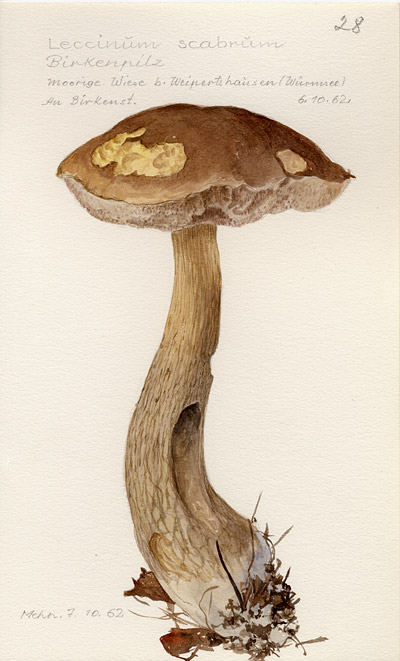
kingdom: Fungi
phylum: Basidiomycota
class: Agaricomycetes
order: Boletales
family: Boletaceae
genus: Leccinum
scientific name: Leccinum scabrum
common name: Blushing bolete
